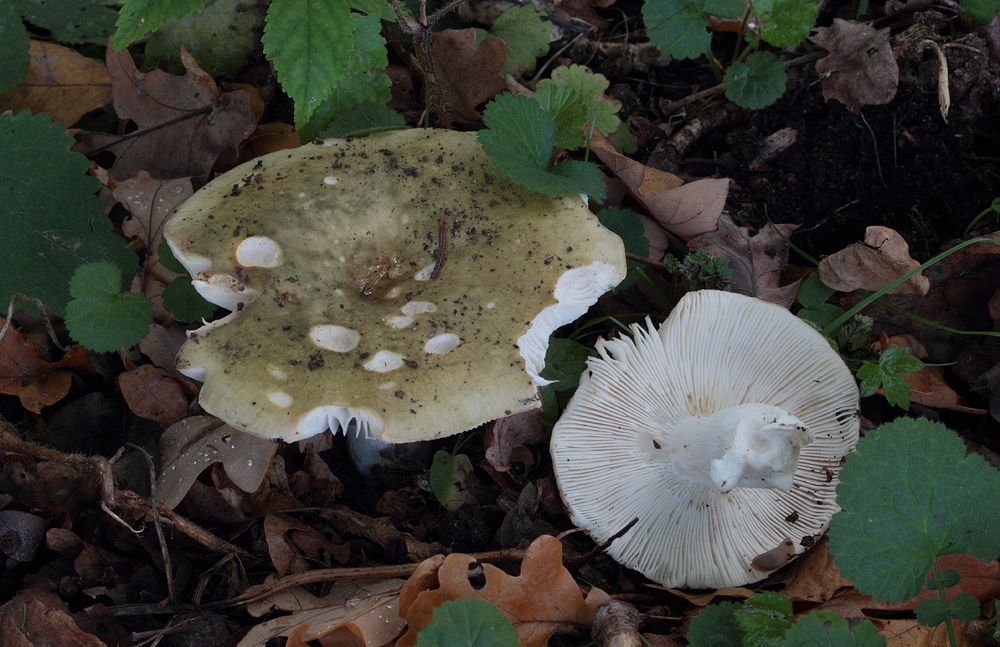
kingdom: Fungi
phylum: Basidiomycota
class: Agaricomycetes
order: Russulales
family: Russulaceae
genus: Russula
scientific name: Russula heterophylla
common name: gaffelbladet skørhat
